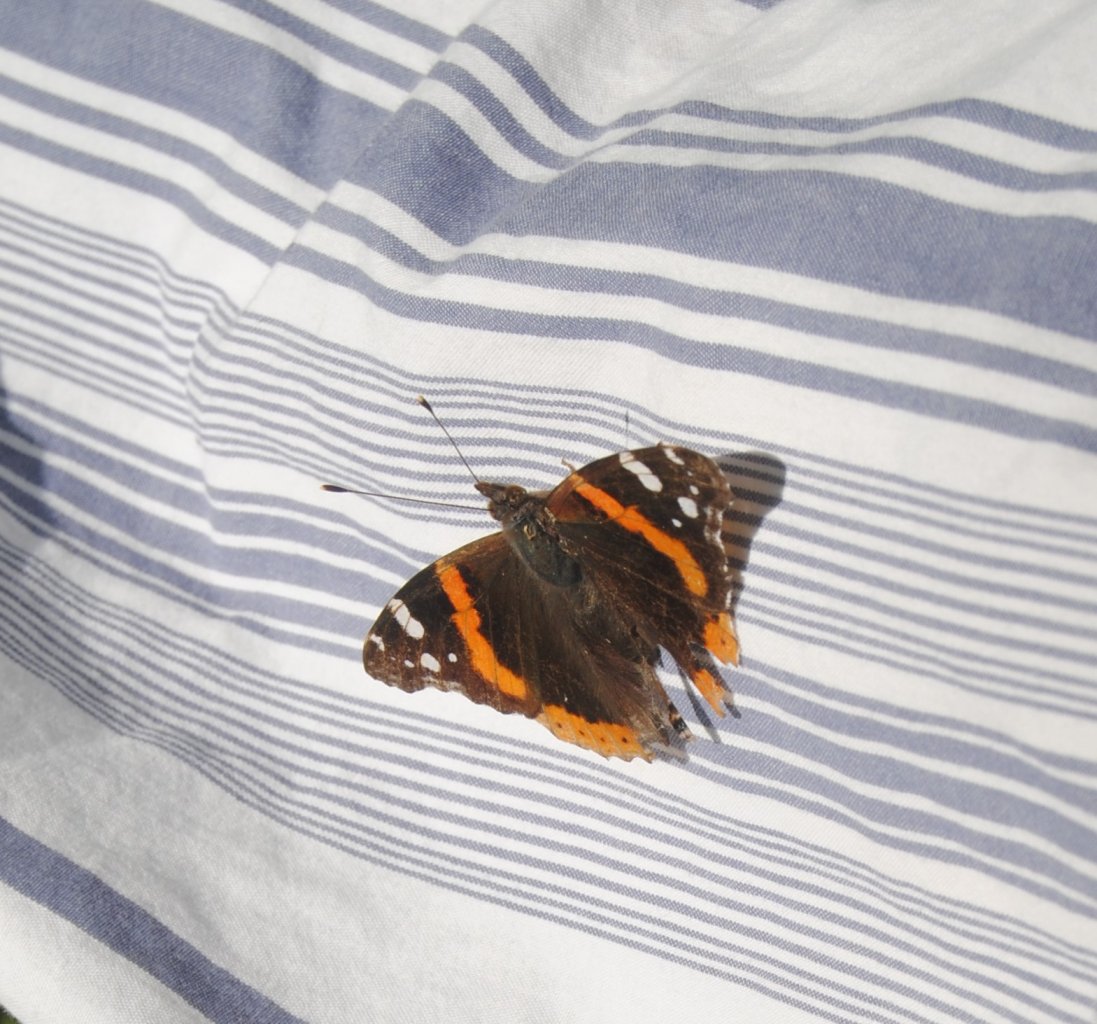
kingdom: Animalia
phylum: Arthropoda
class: Insecta
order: Lepidoptera
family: Nymphalidae
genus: Vanessa
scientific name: Vanessa atalanta
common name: Red Admiral
